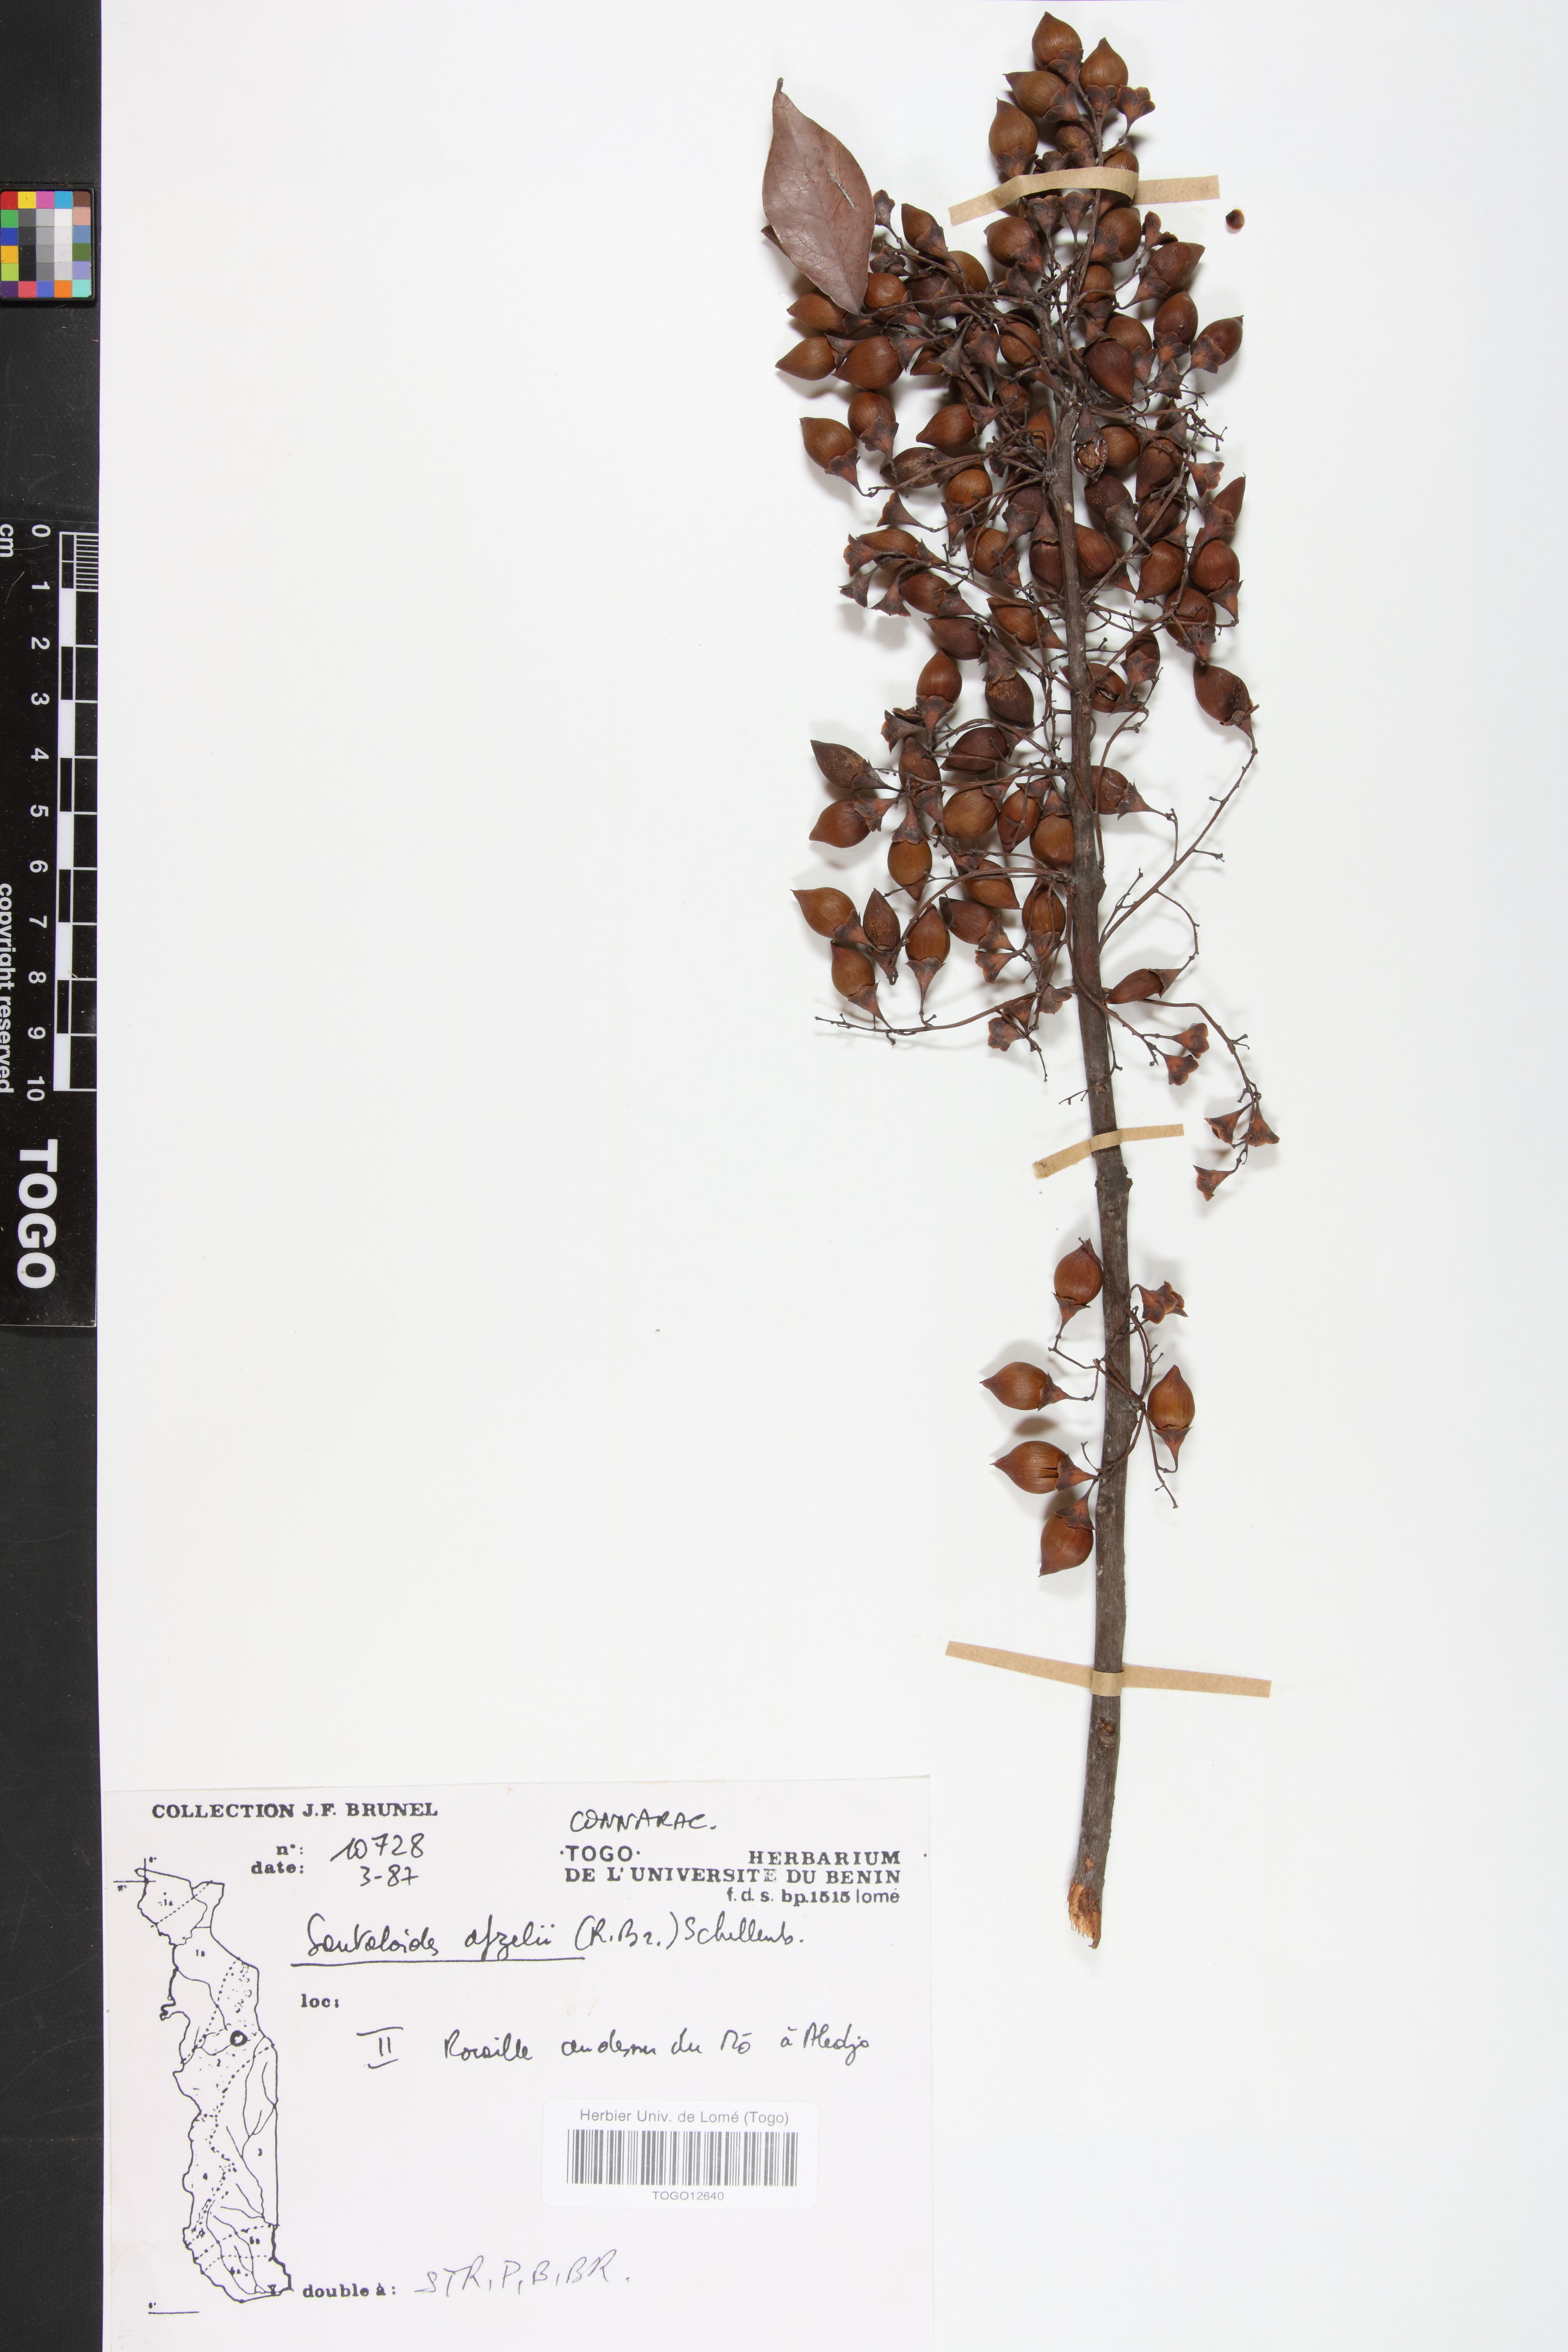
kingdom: Plantae
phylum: Tracheophyta
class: Magnoliopsida
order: Oxalidales
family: Connaraceae
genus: Rourea
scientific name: Rourea minor
